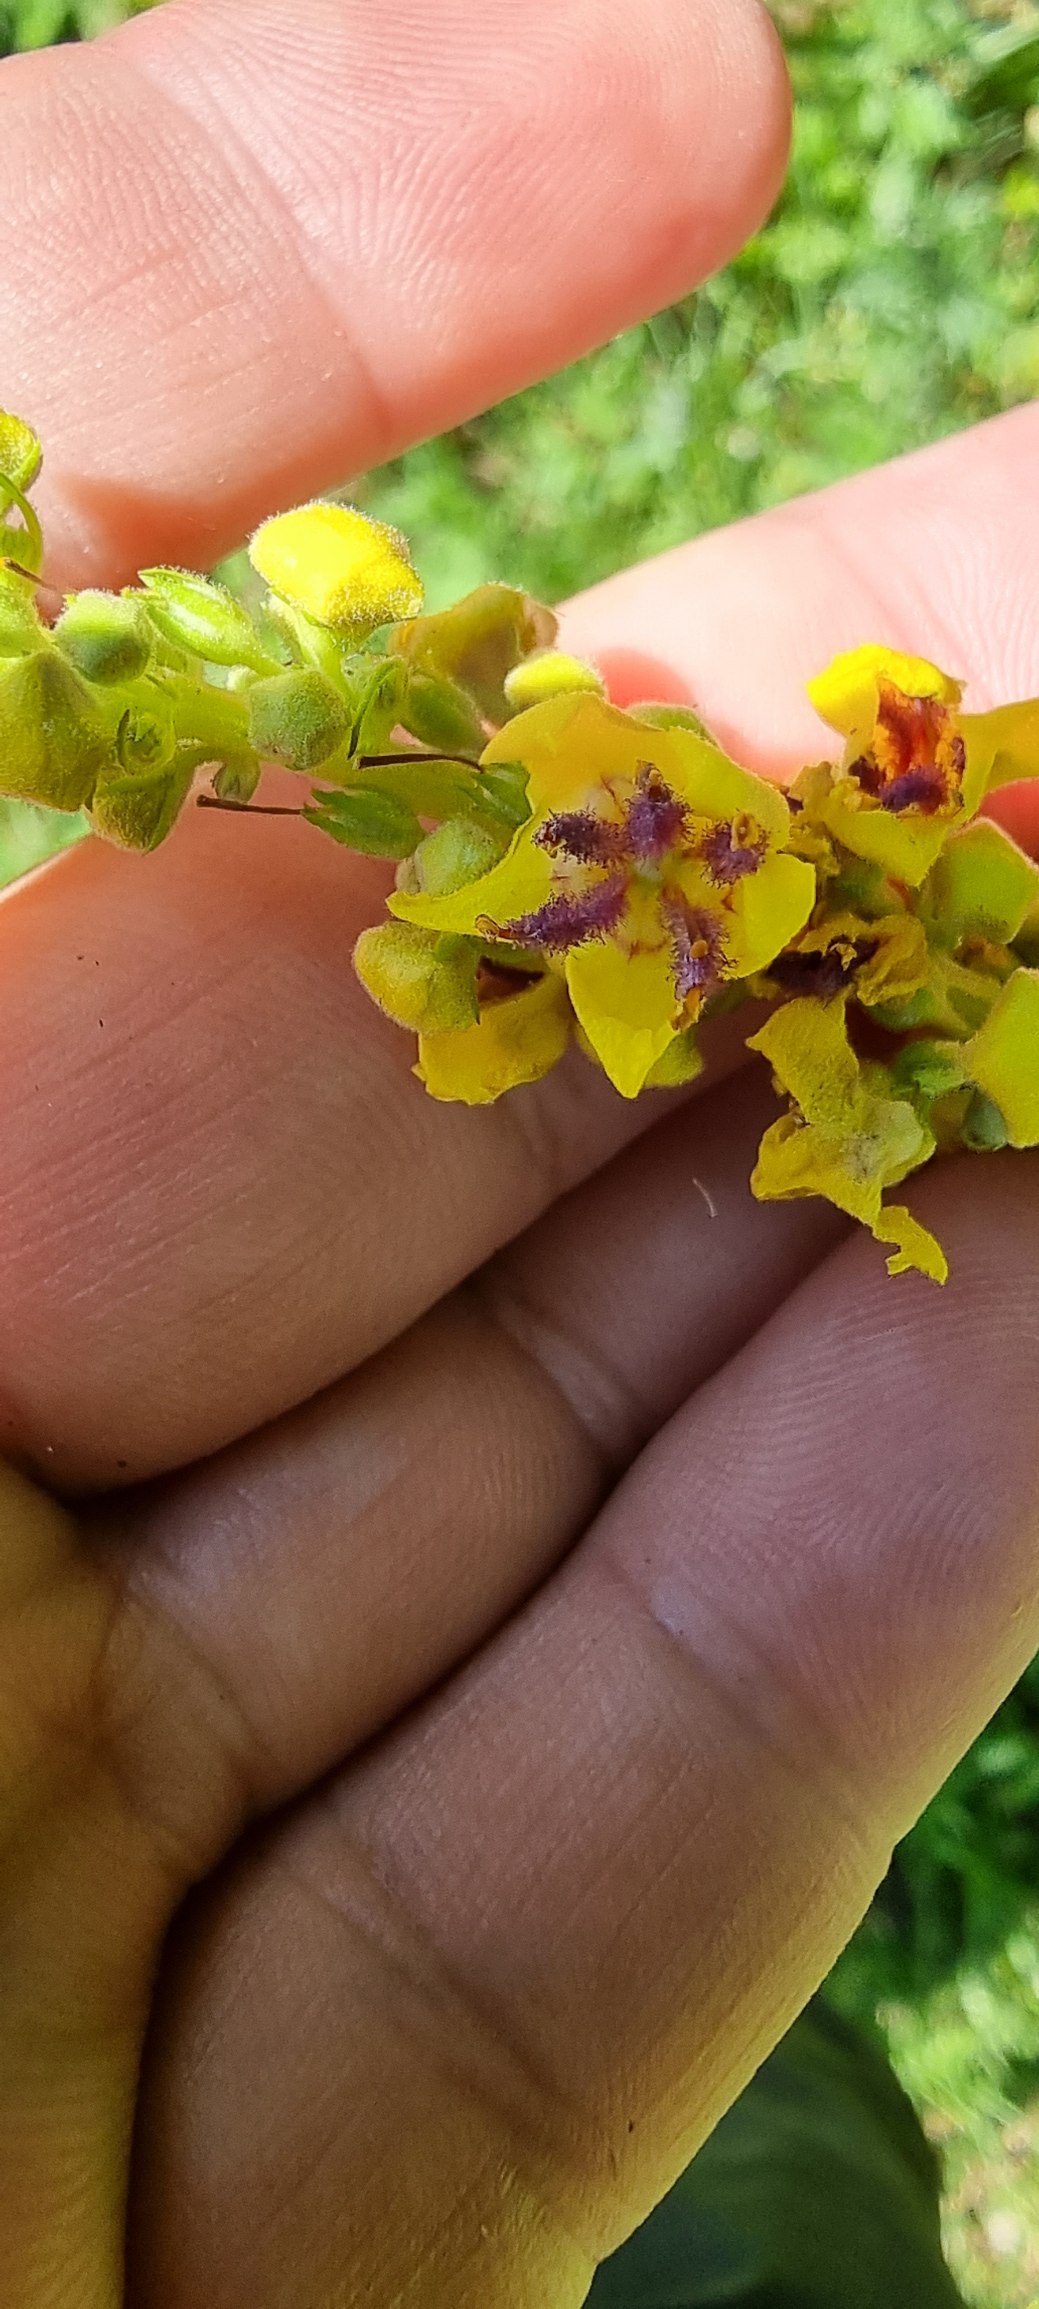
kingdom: Plantae
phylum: Tracheophyta
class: Magnoliopsida
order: Lamiales
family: Scrophulariaceae
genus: Verbascum
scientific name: Verbascum nigrum
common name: Mørk kongelys
